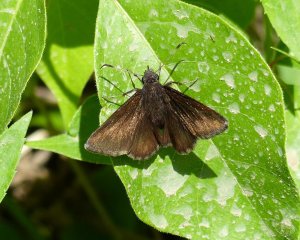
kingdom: Animalia
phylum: Arthropoda
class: Insecta
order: Lepidoptera
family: Hesperiidae
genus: Autochton
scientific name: Autochton
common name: Northern Cloudywing
